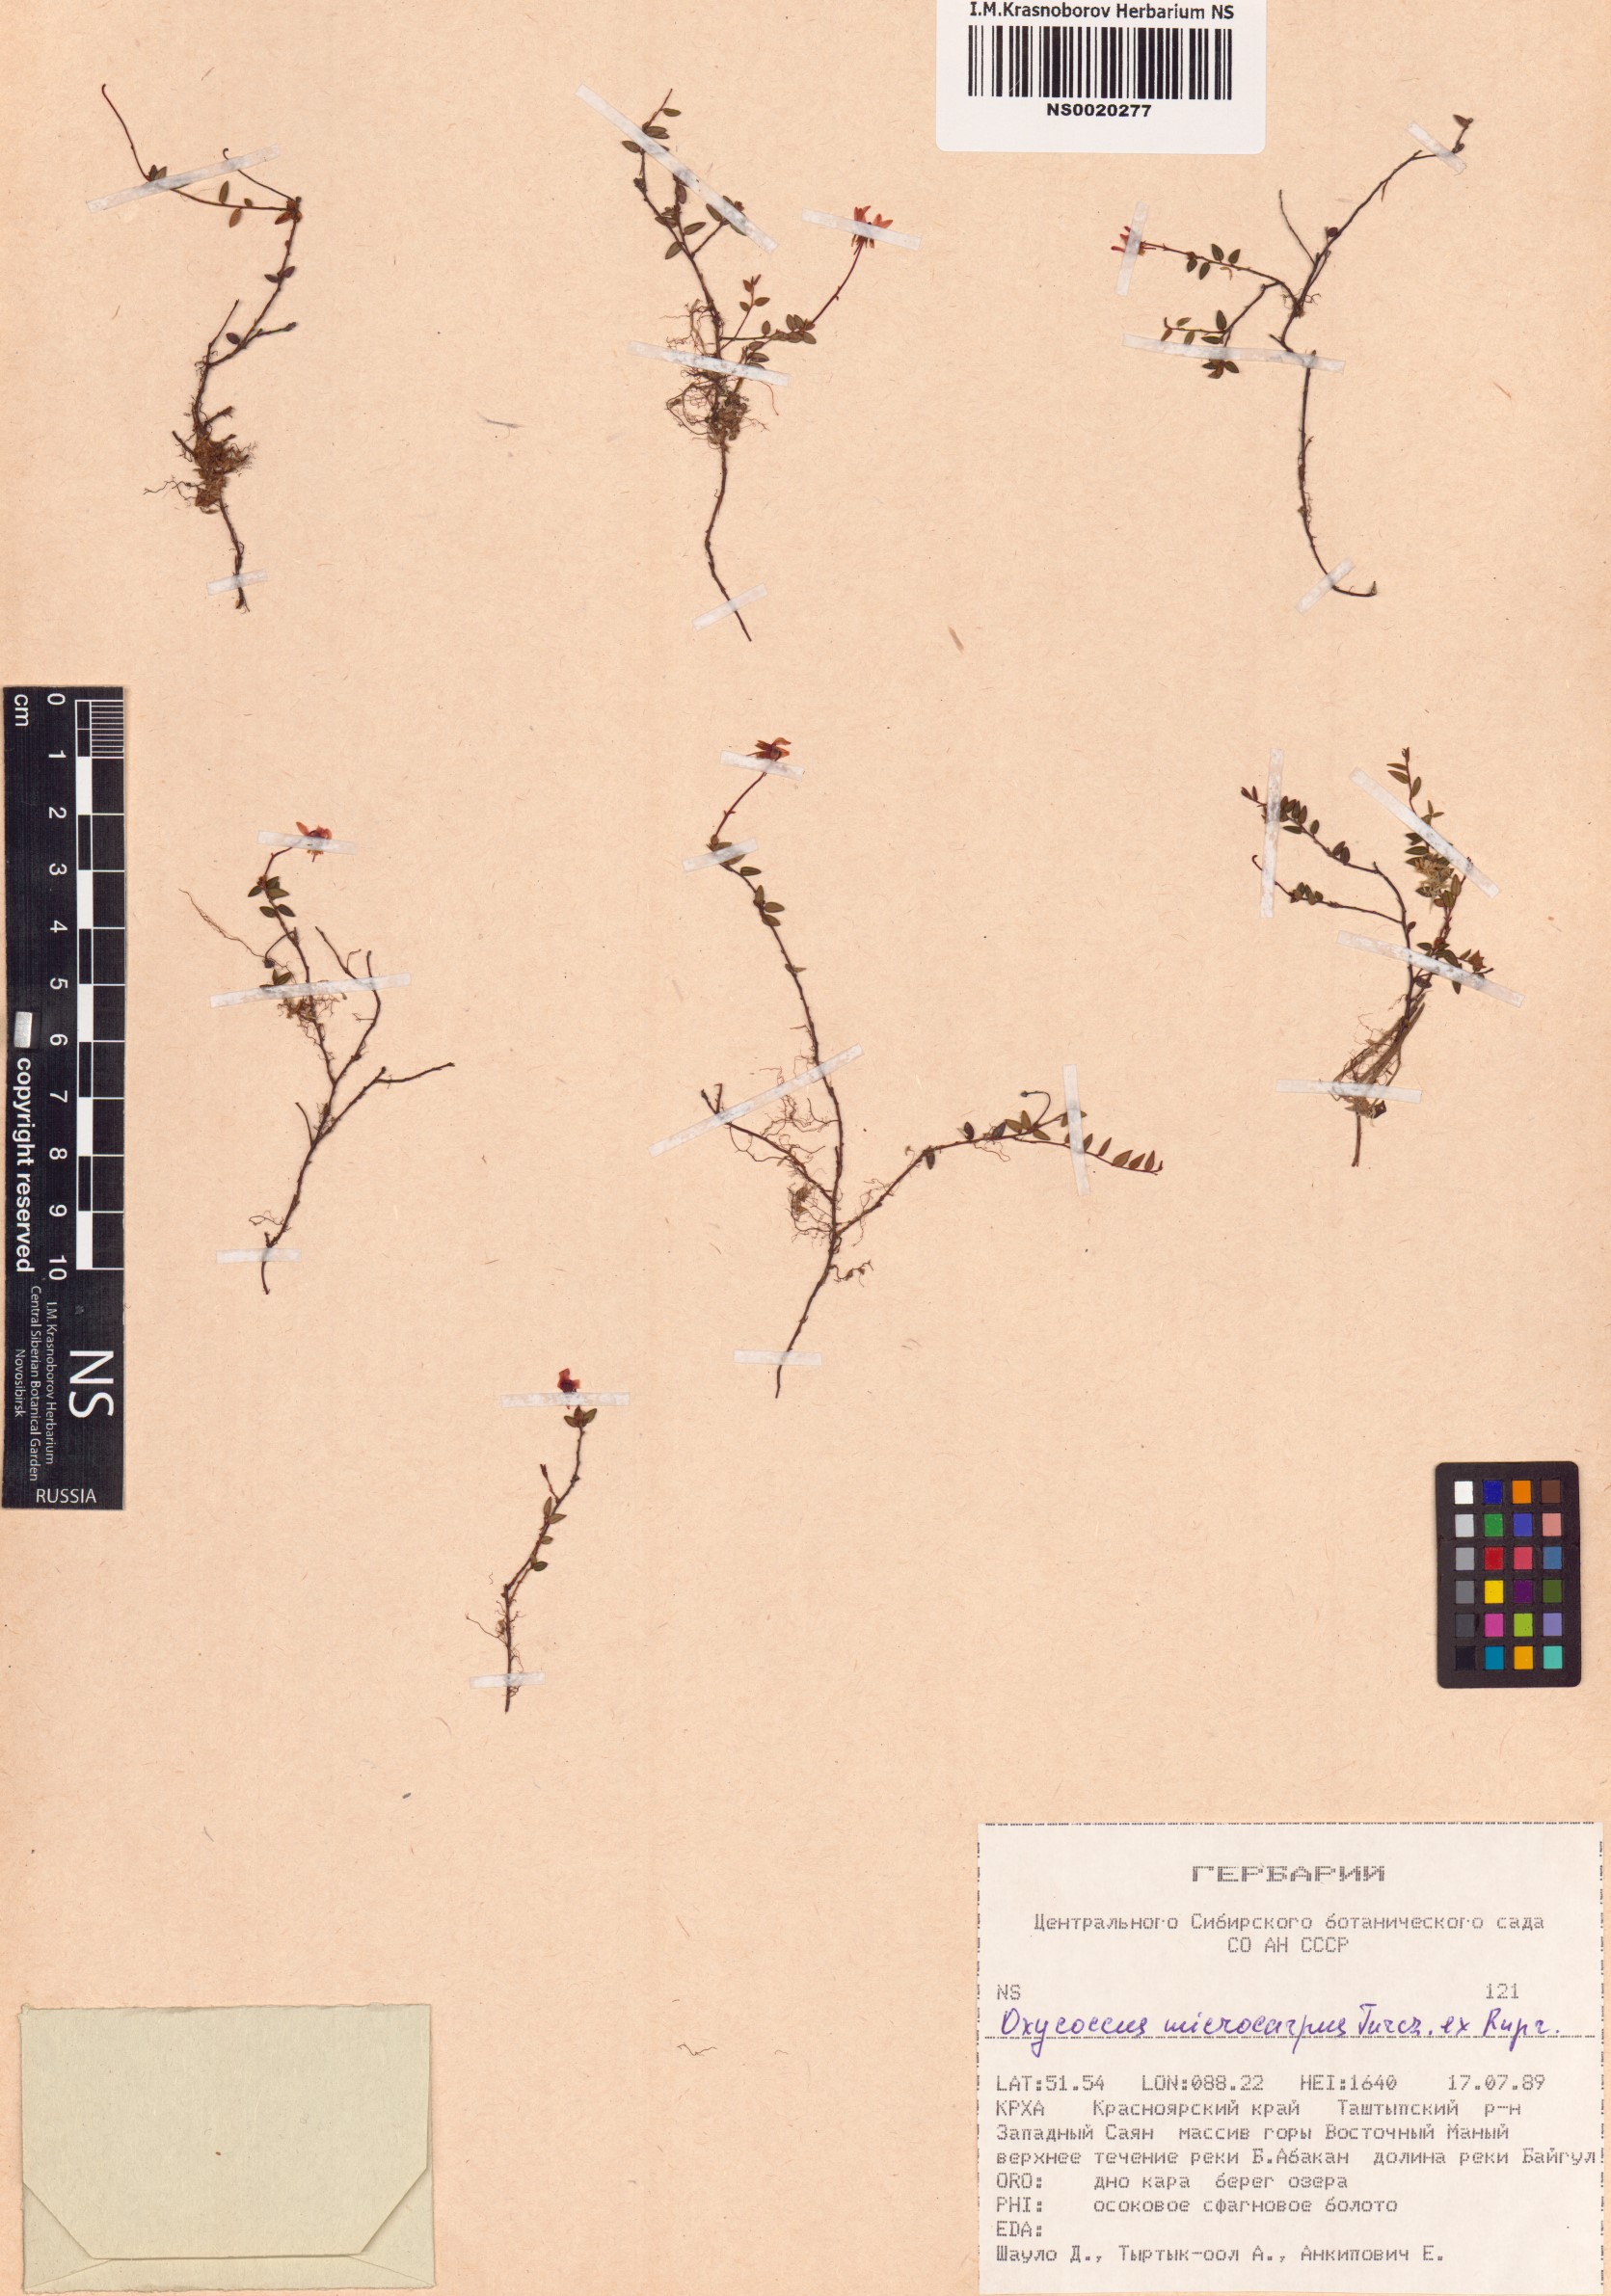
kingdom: Plantae
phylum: Tracheophyta
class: Magnoliopsida
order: Ericales
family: Ericaceae
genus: Vaccinium
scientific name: Vaccinium microcarpum
